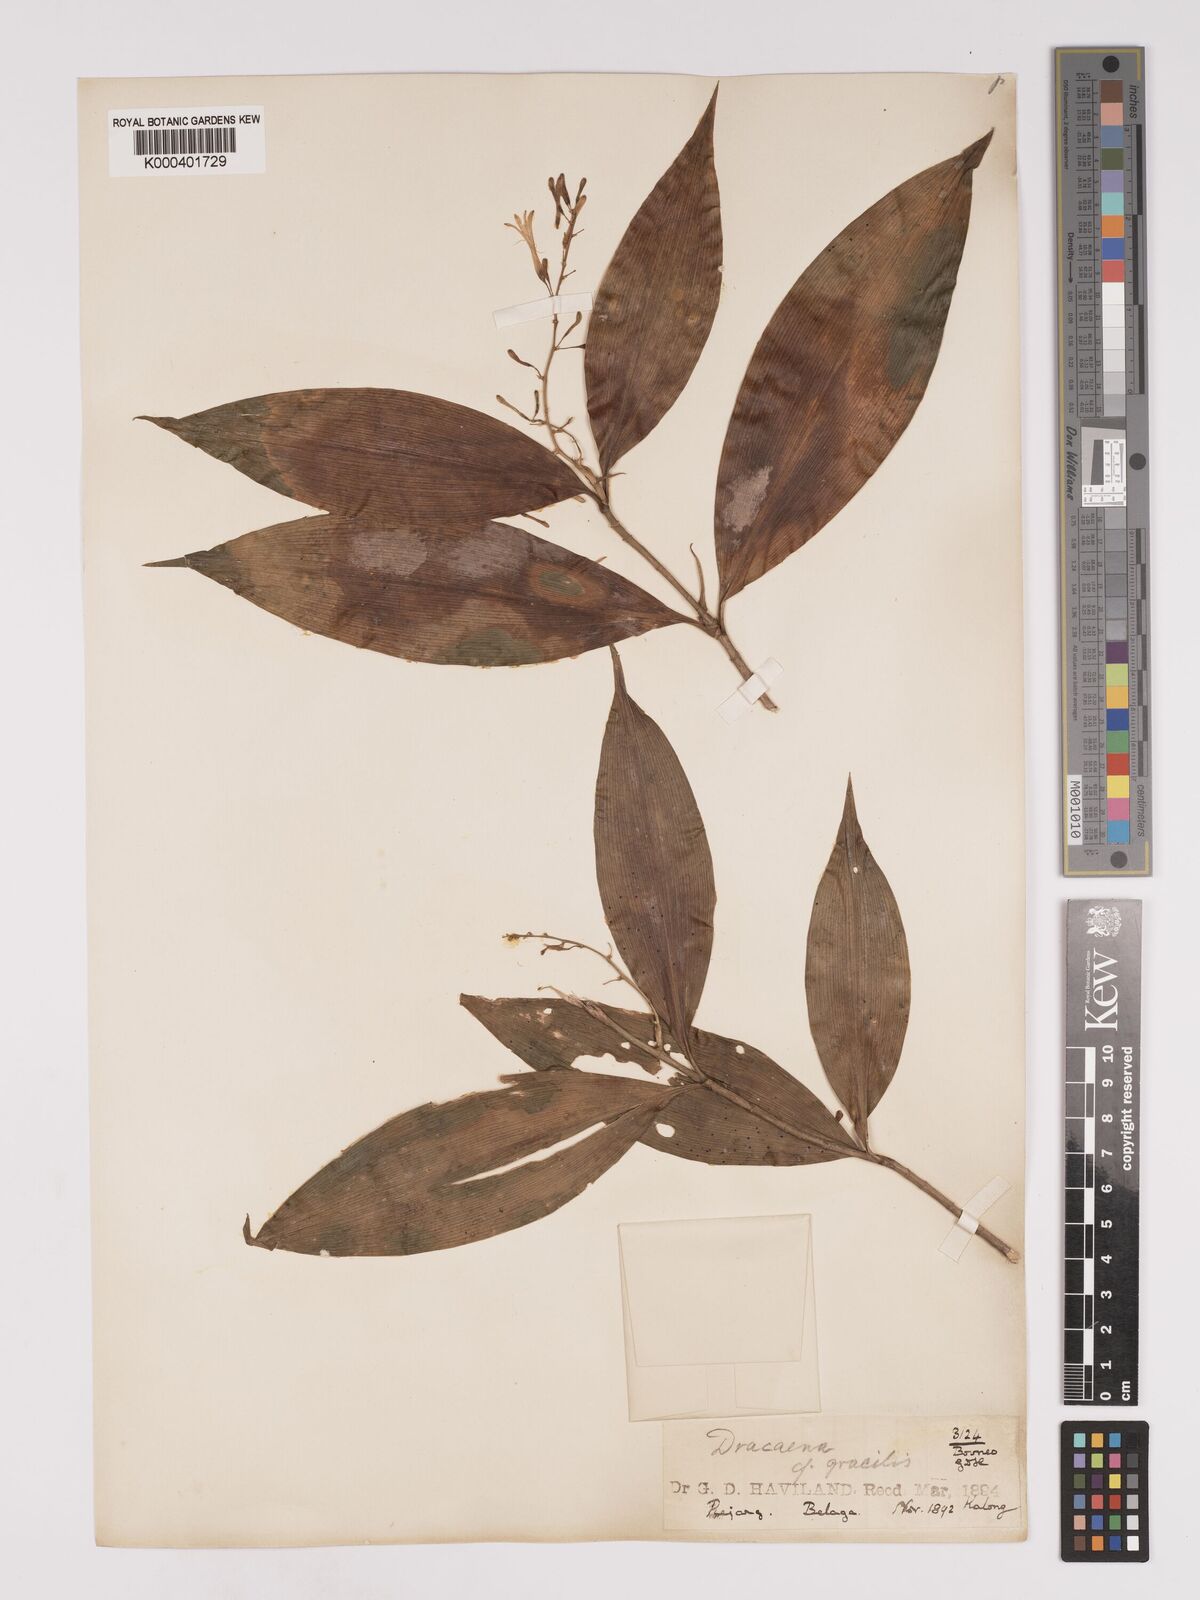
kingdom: Plantae
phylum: Tracheophyta
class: Liliopsida
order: Asparagales
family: Asparagaceae
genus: Dracaena
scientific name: Dracaena elliptica
